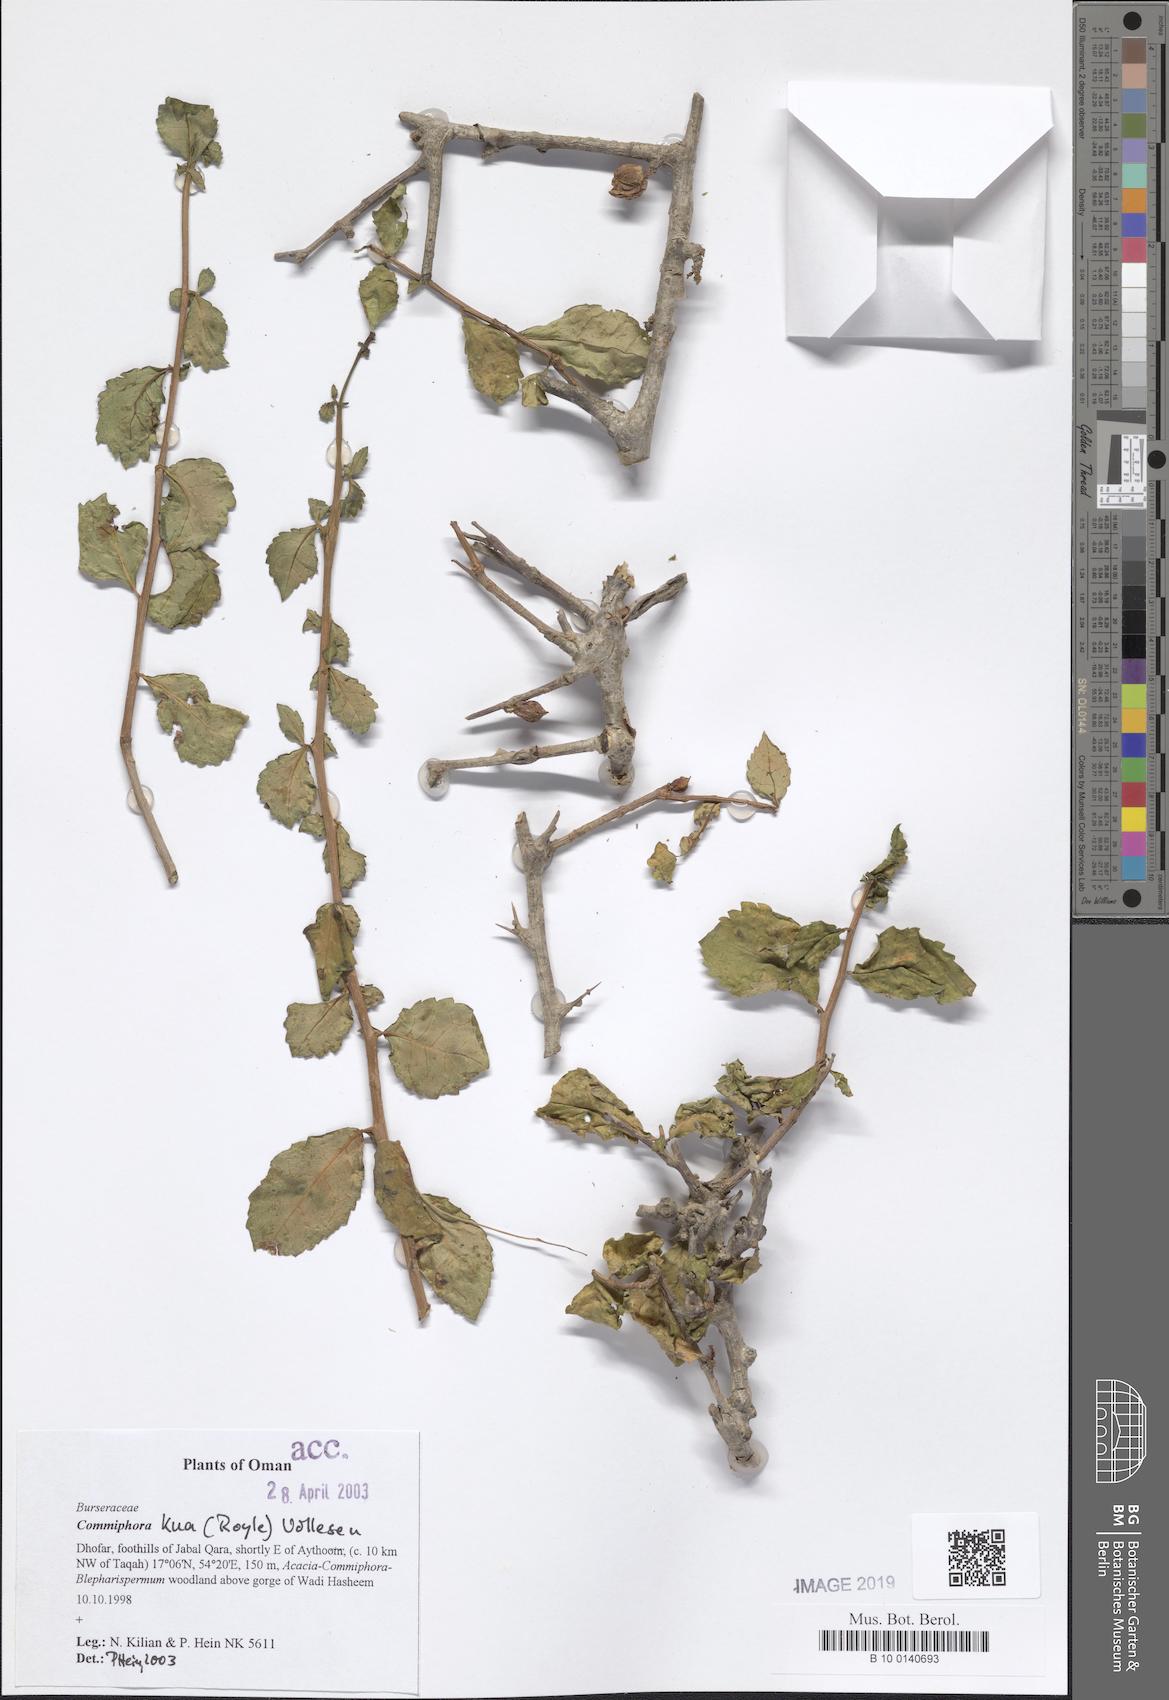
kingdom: Plantae
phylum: Tracheophyta
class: Magnoliopsida
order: Sapindales
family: Burseraceae
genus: Commiphora
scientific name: Commiphora kua
